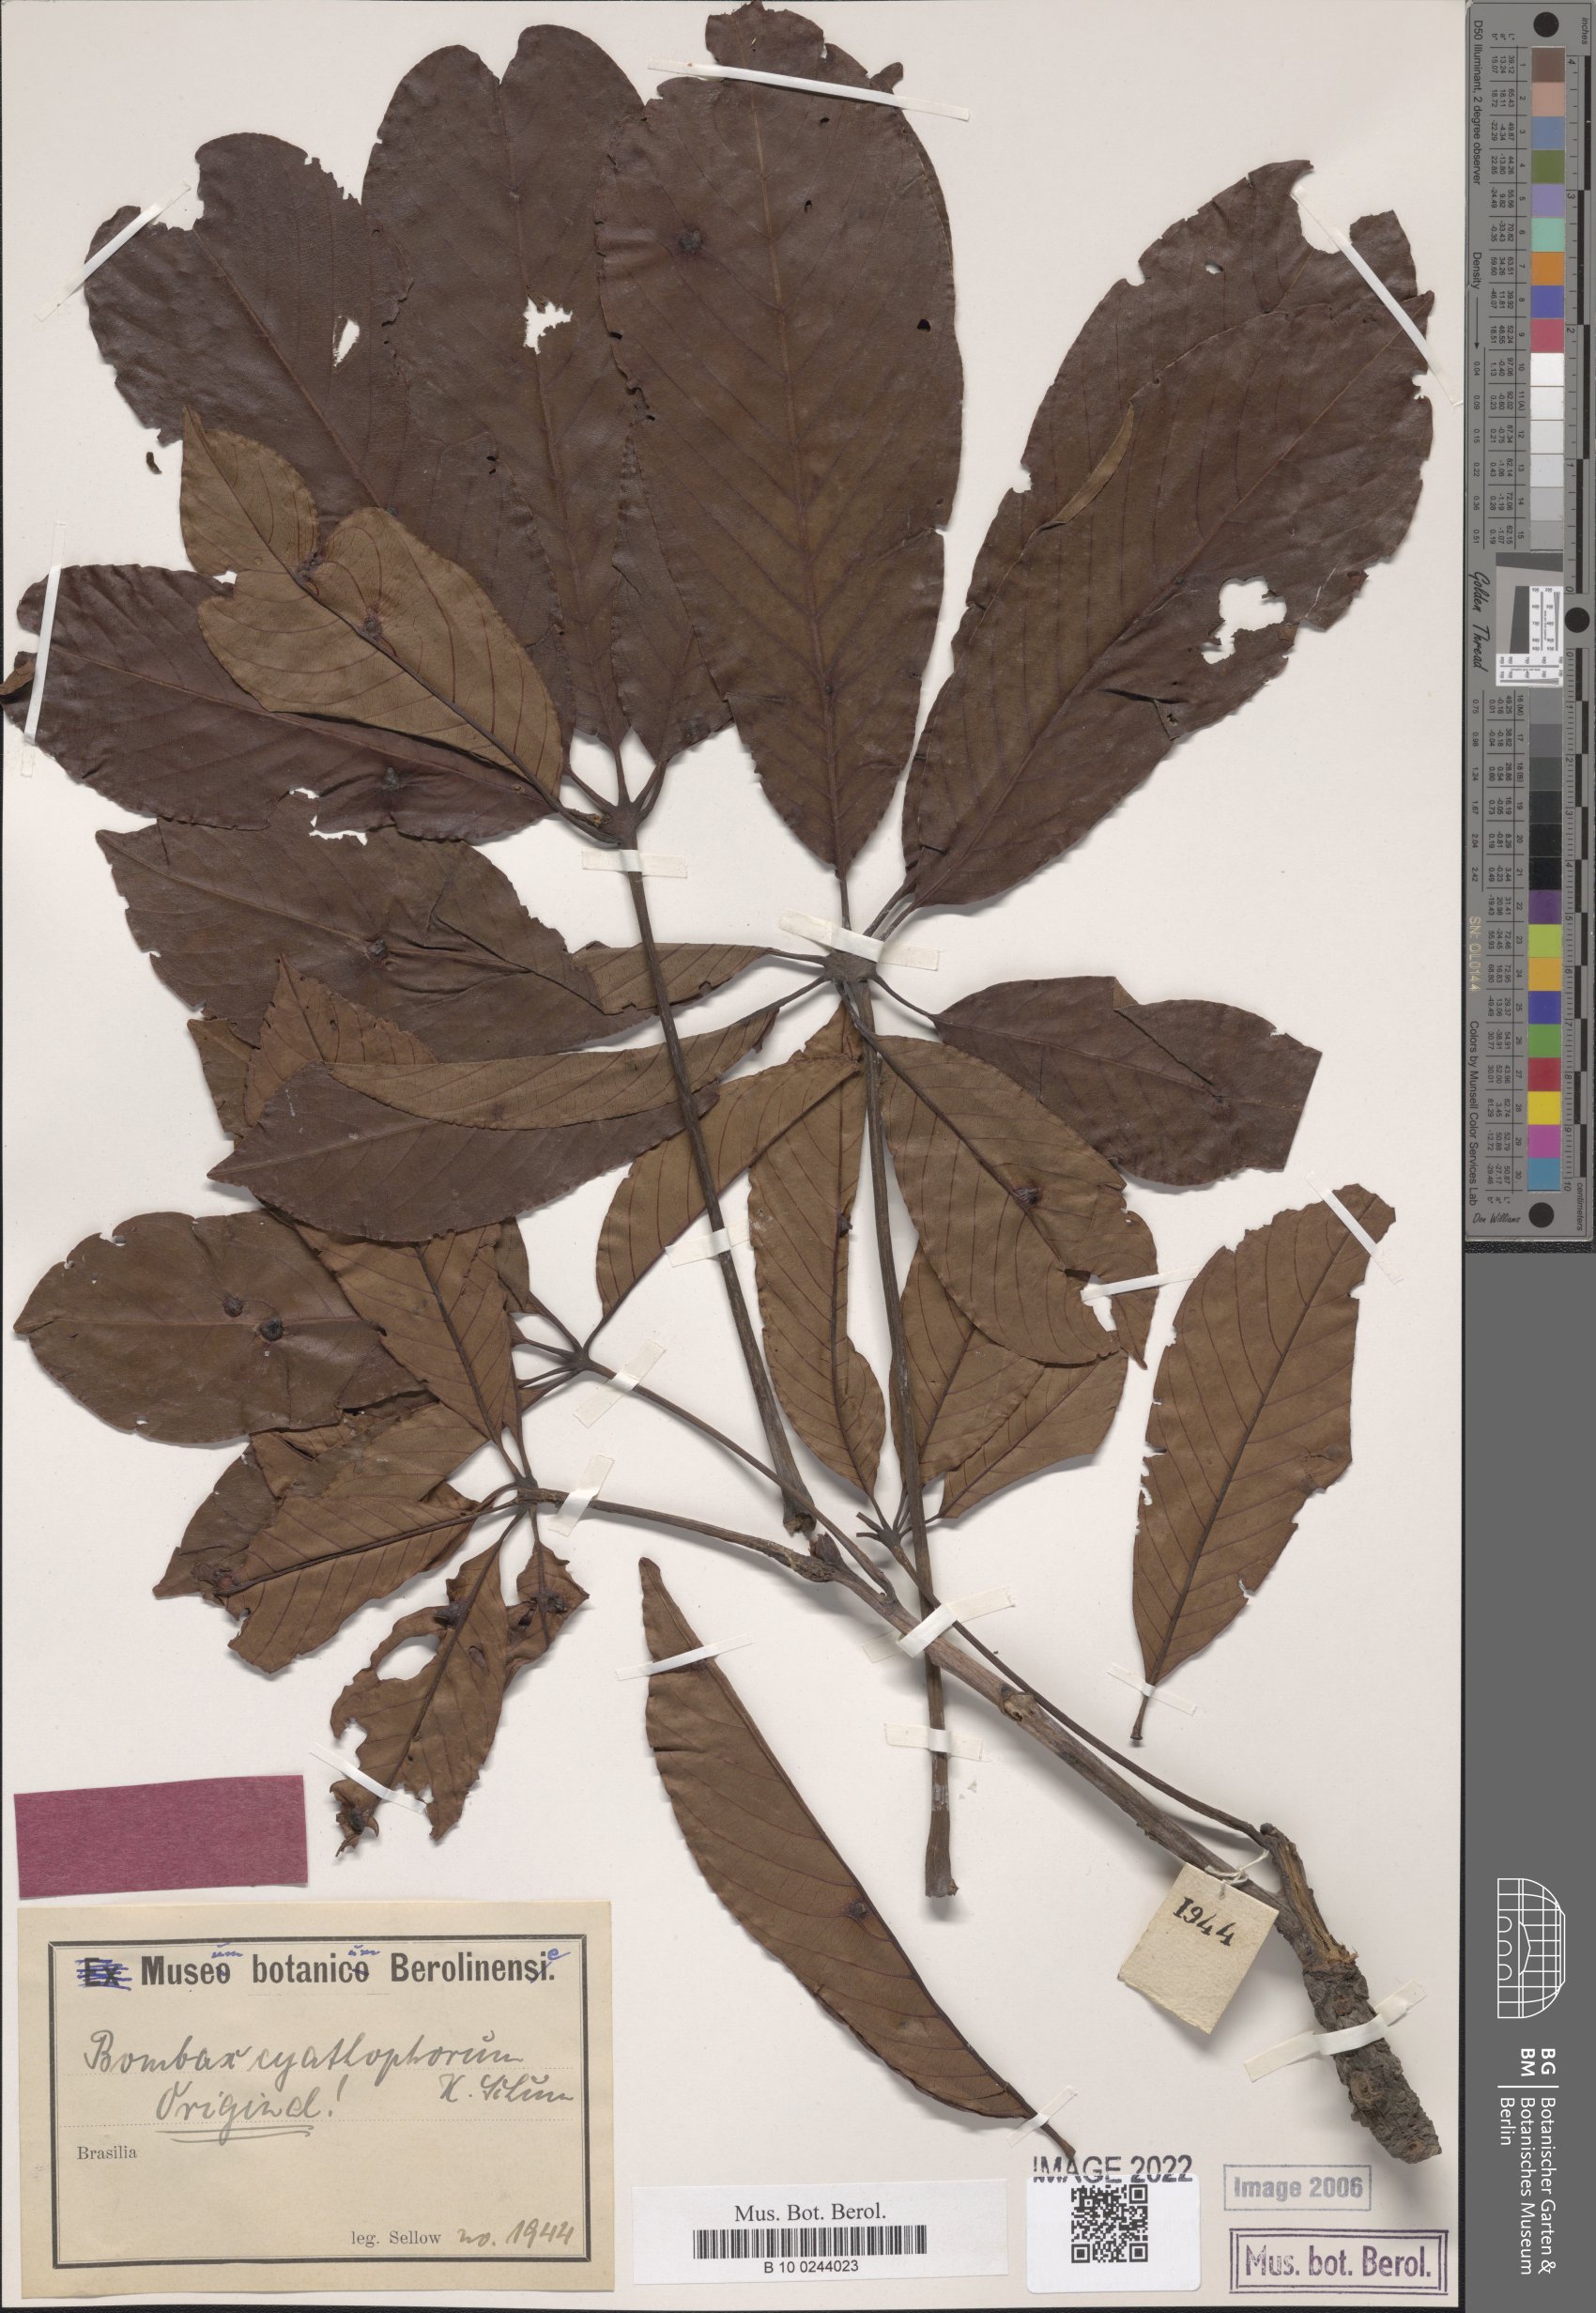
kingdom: Plantae
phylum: Tracheophyta
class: Magnoliopsida
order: Malvales
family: Malvaceae
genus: Pseudobombax
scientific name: Pseudobombax grandiflorum
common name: Brazilian shaving-brush-tree
